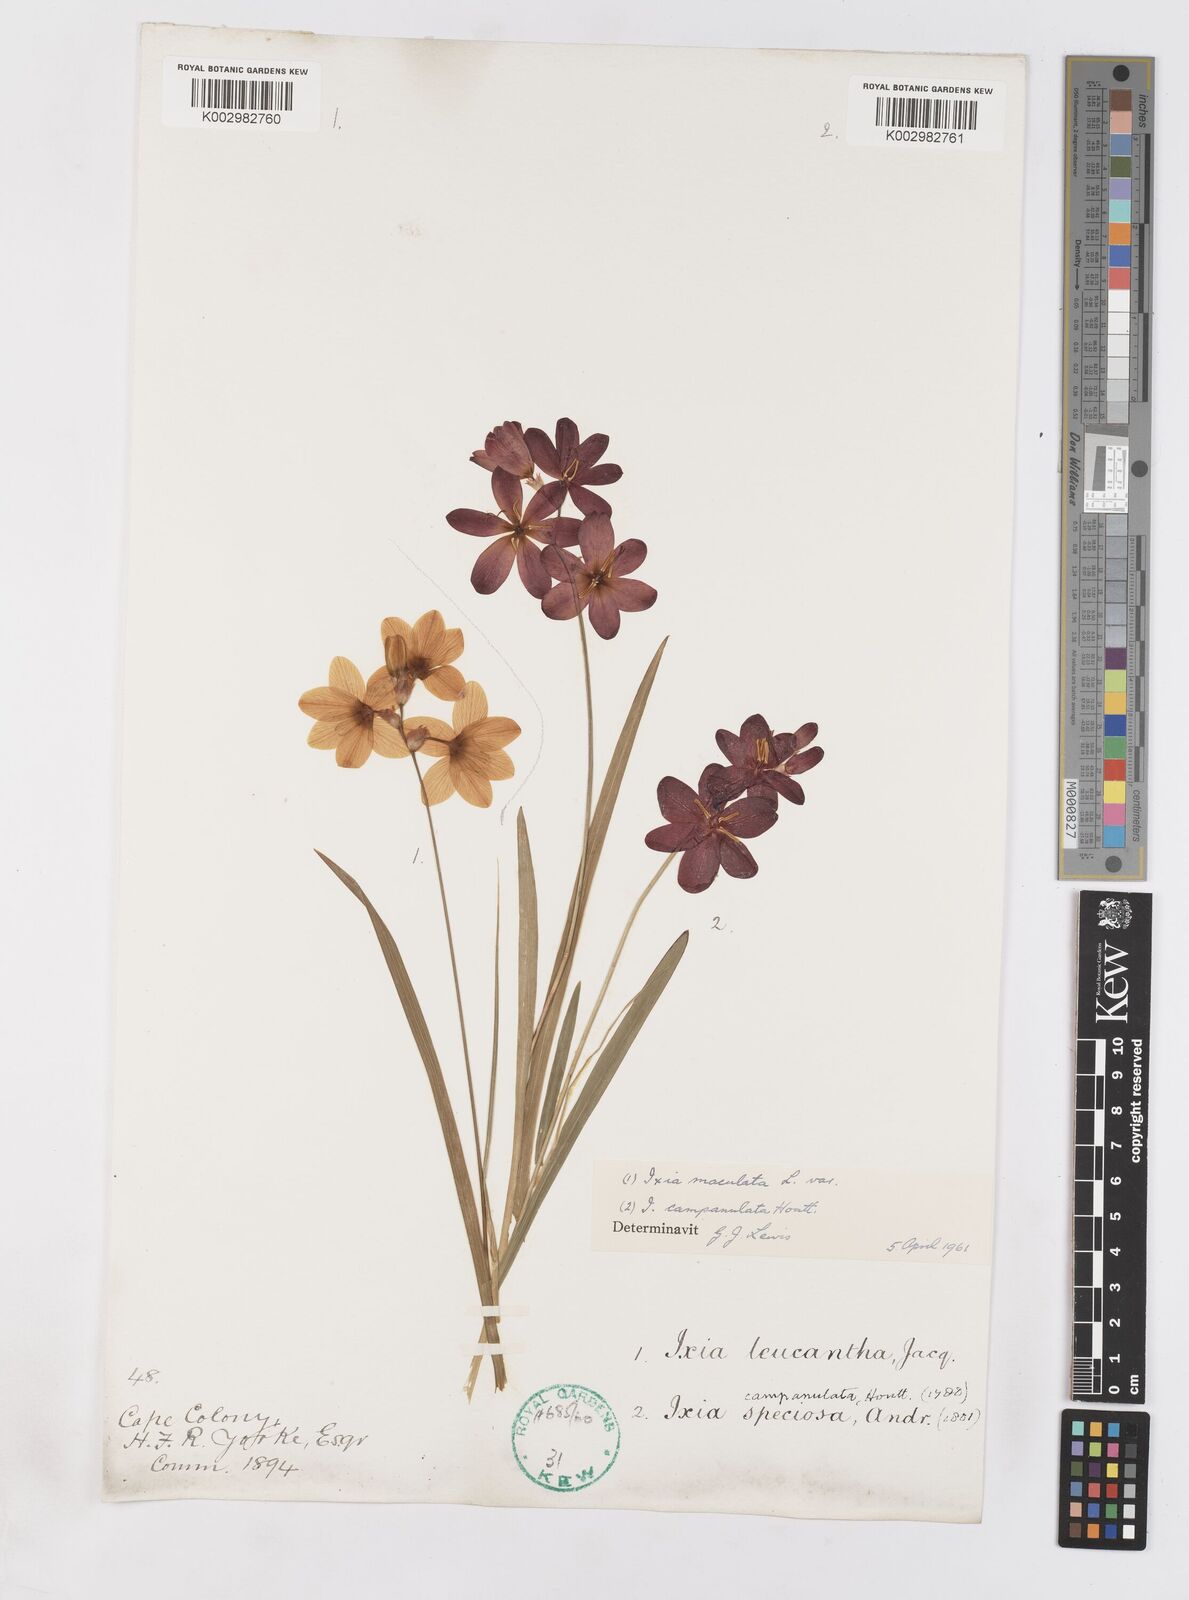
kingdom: Plantae
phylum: Tracheophyta
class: Liliopsida
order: Asparagales
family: Iridaceae
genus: Ixia
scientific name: Ixia campanulata
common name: Red corn-lily
